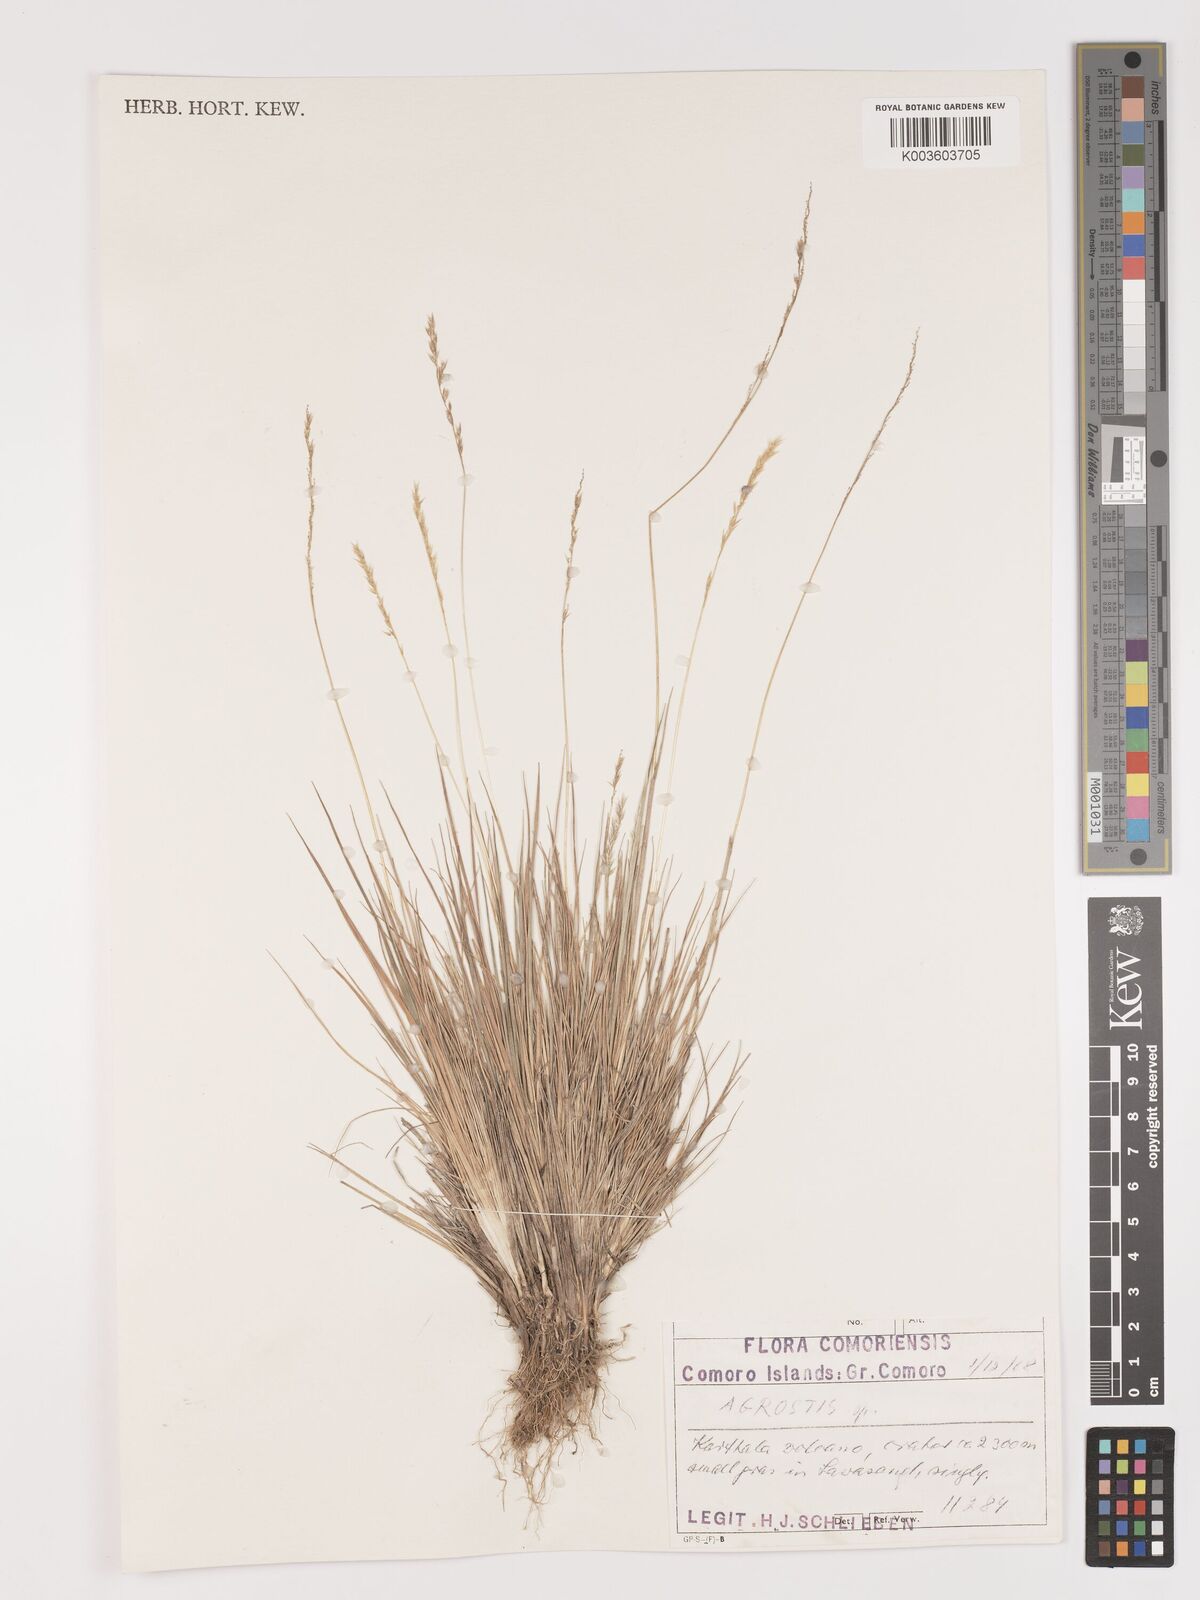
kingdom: Plantae
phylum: Tracheophyta
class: Liliopsida
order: Poales
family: Poaceae
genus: Agrostis
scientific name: Agrostis
